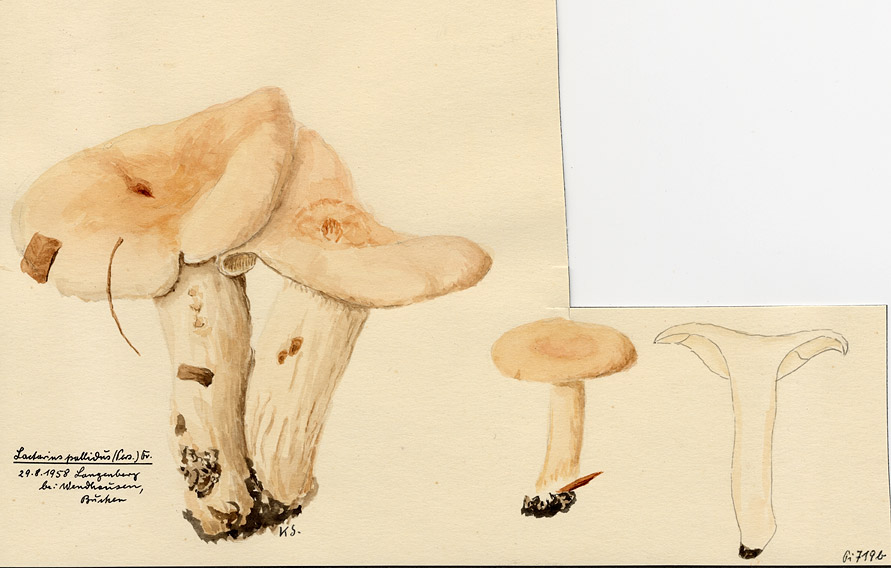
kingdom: Fungi
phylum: Basidiomycota
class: Agaricomycetes
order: Russulales
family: Russulaceae
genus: Lactarius
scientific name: Lactarius pallidus
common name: Pale milkcap
